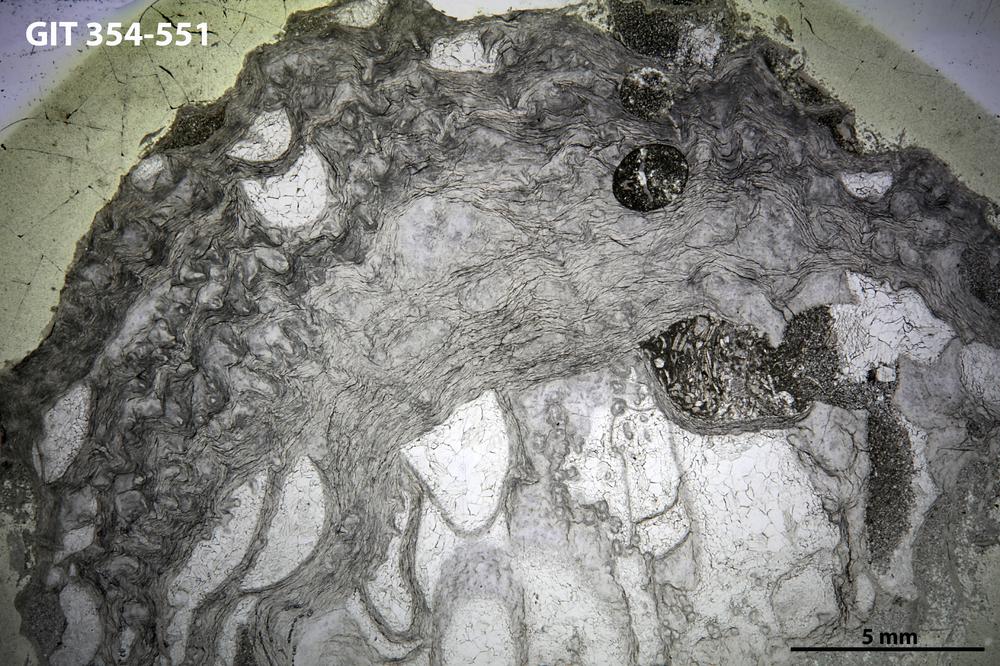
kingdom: Animalia
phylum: Porifera
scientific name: Porifera
